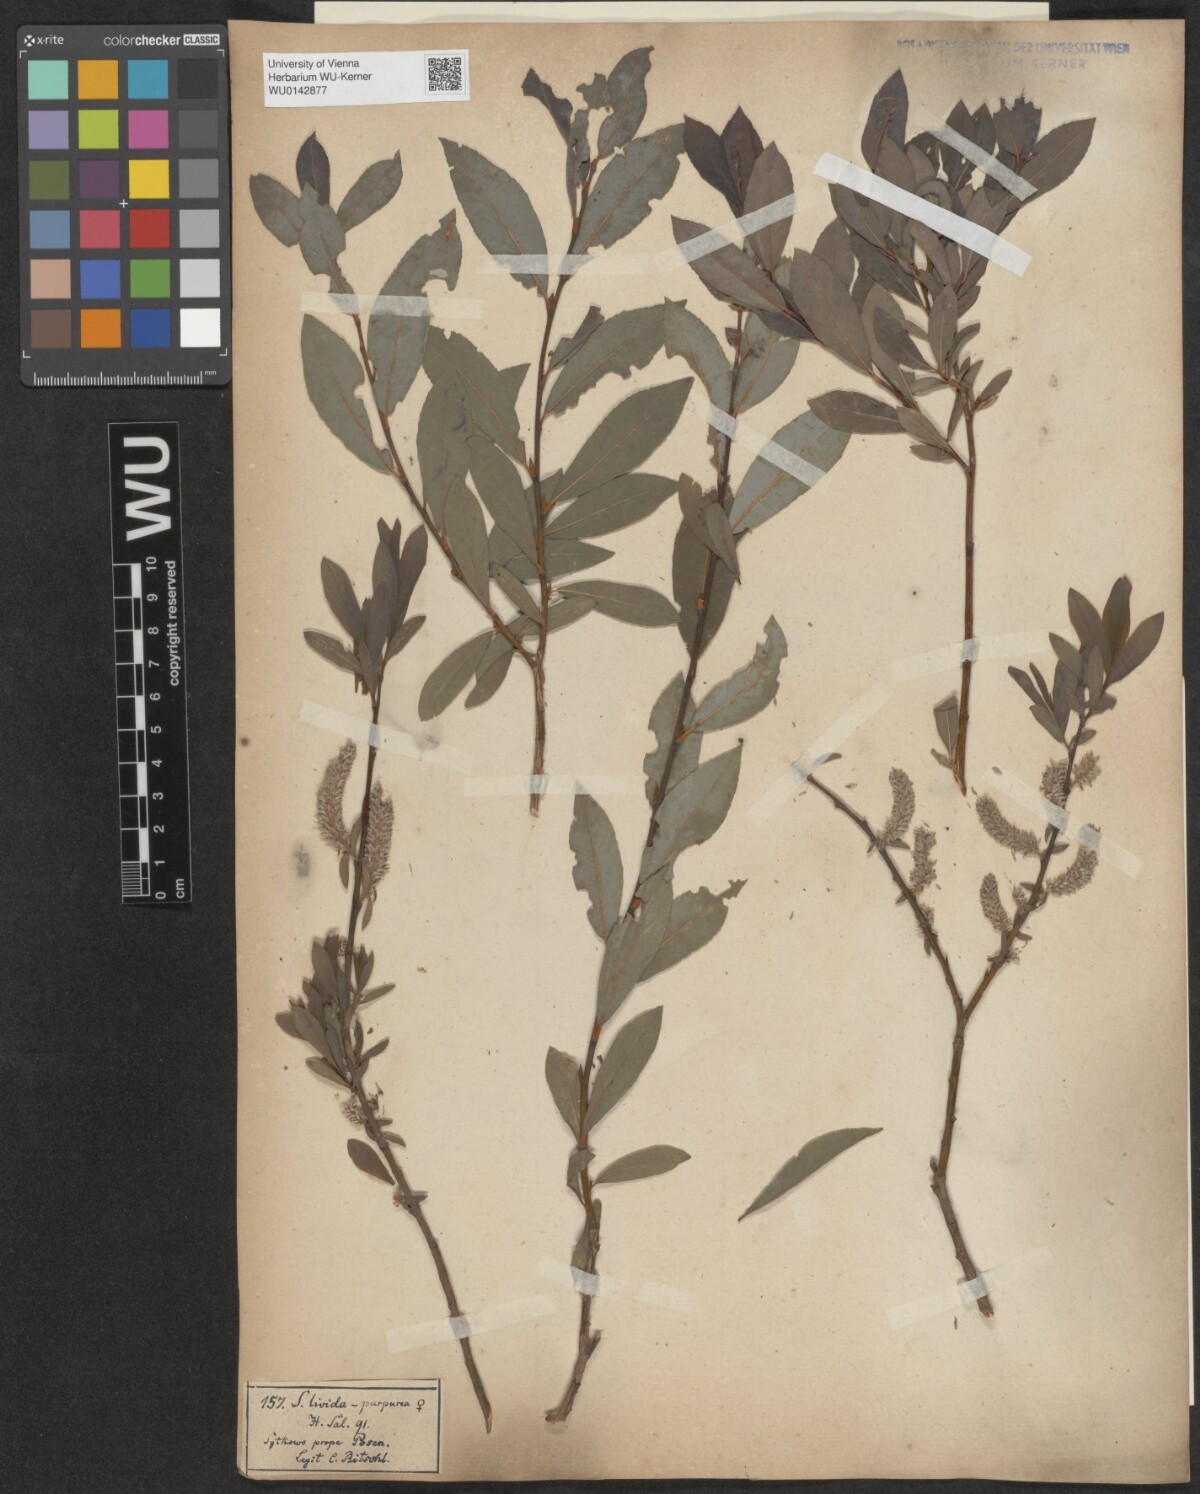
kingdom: Plantae
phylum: Tracheophyta
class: Magnoliopsida
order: Malpighiales
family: Salicaceae
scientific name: Salicaceae
